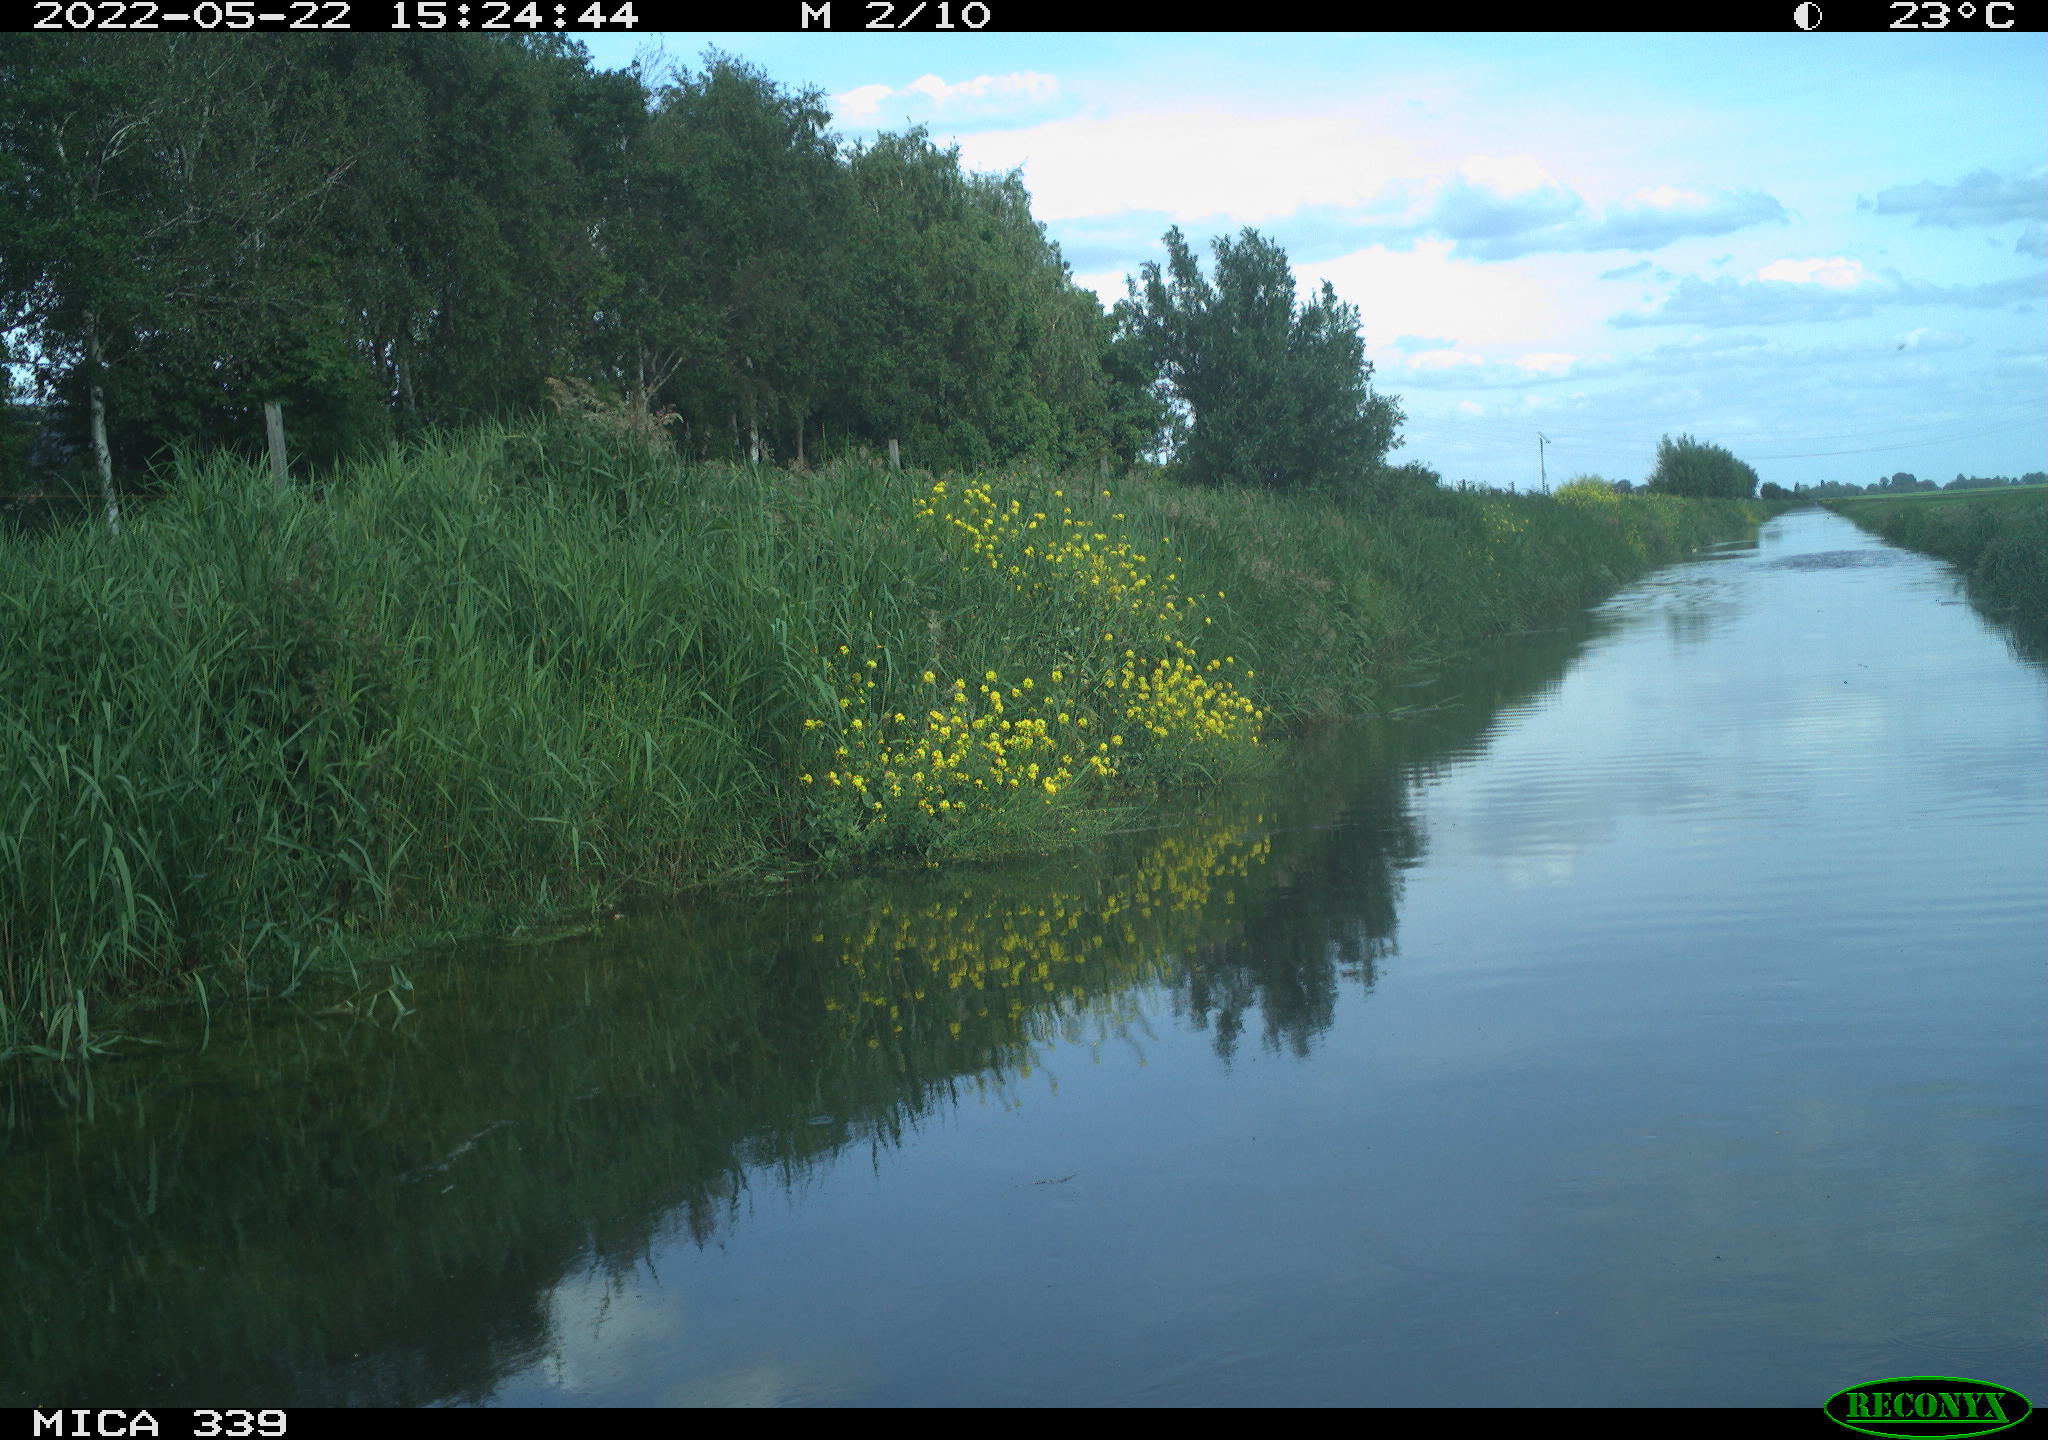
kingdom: Animalia
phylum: Chordata
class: Aves
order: Pelecaniformes
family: Ardeidae
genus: Ardea
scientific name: Ardea cinerea
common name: Grey heron
